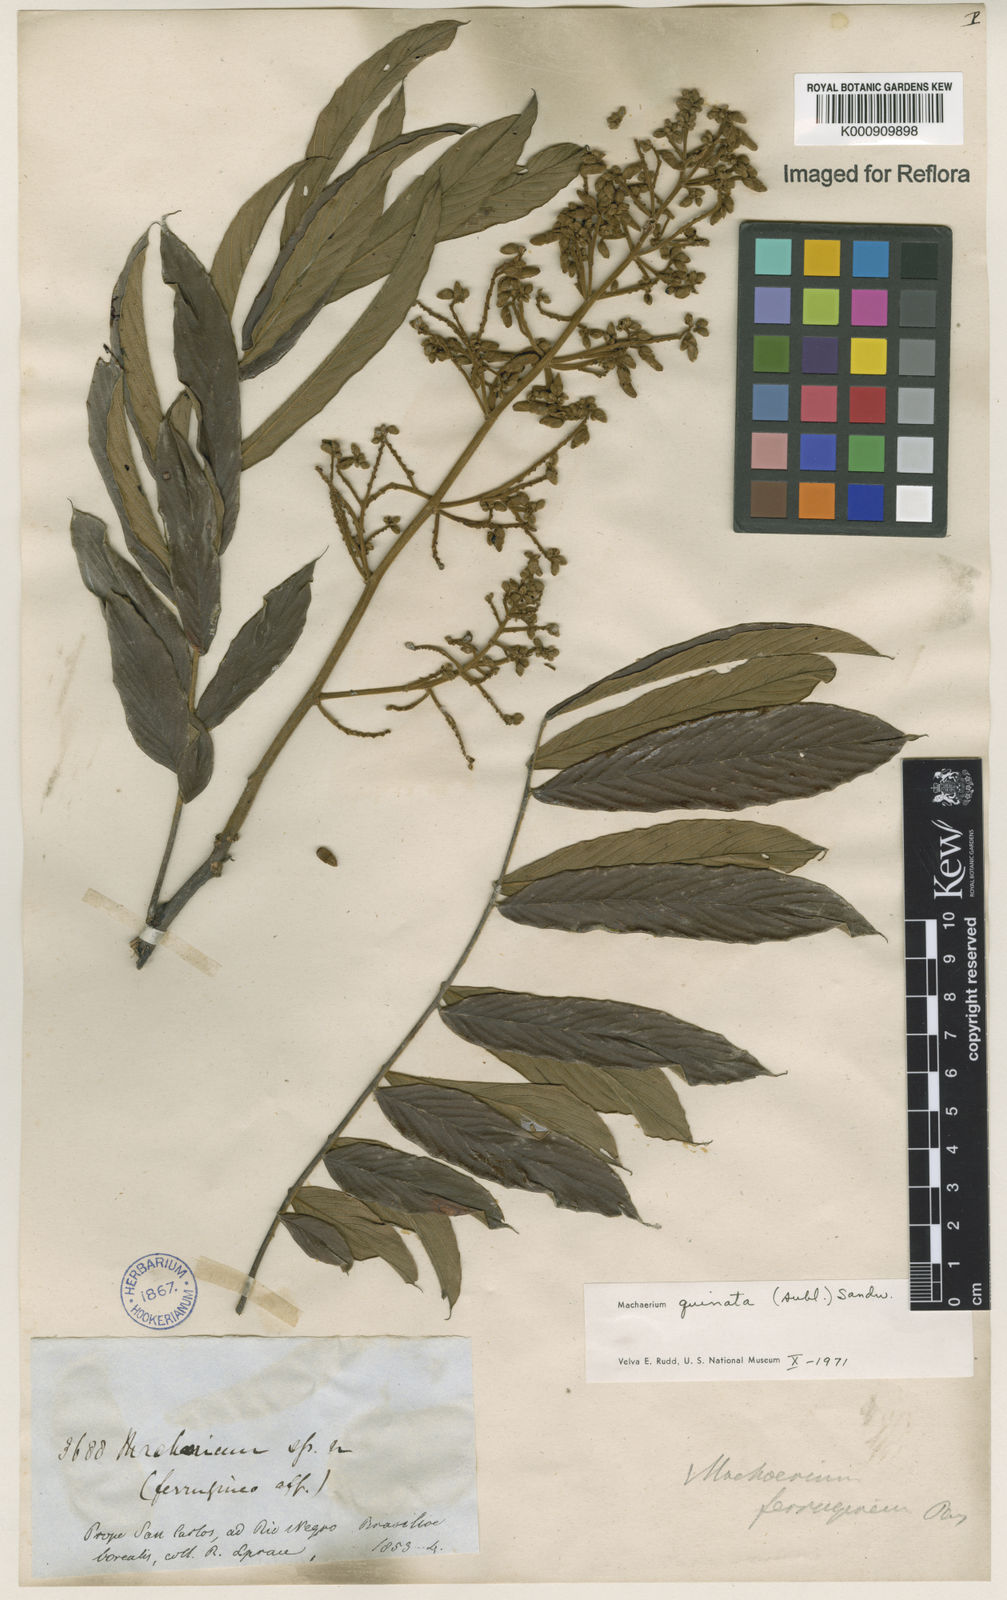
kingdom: Plantae
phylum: Tracheophyta
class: Magnoliopsida
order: Fabales
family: Fabaceae
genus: Machaerium
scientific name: Machaerium quinata
